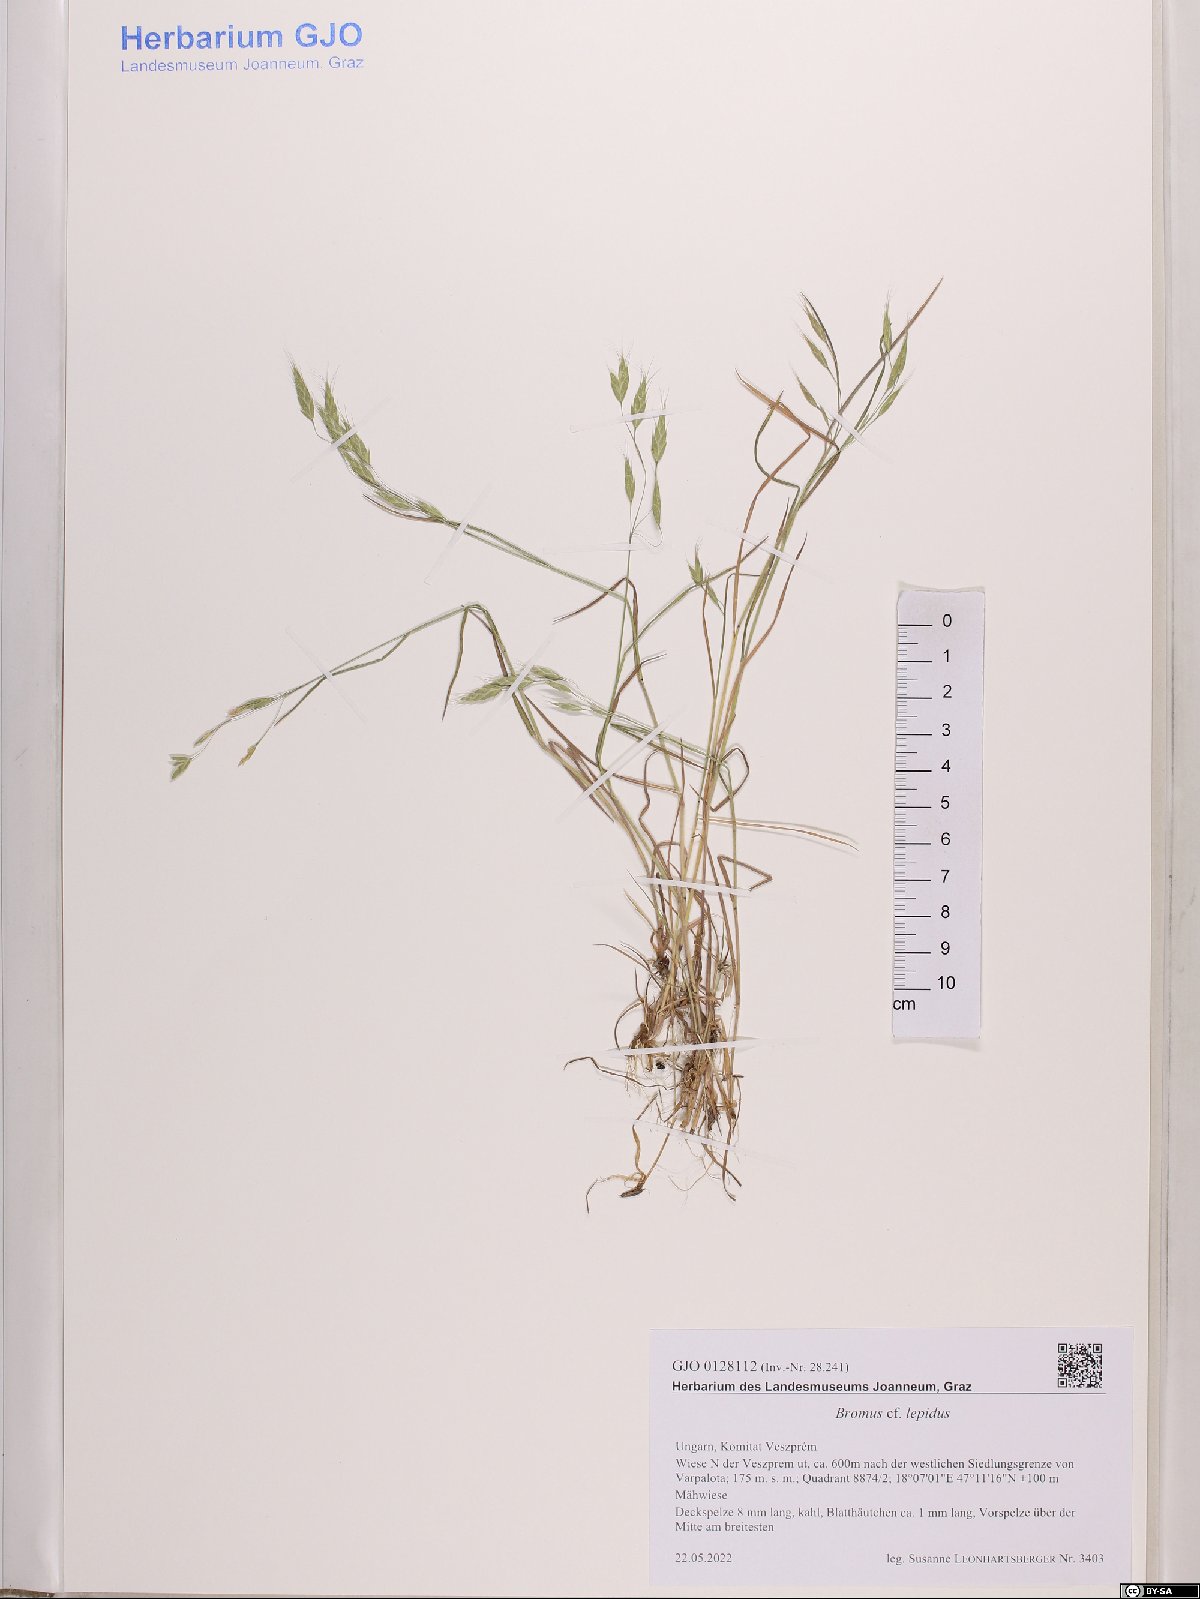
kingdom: Plantae
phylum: Tracheophyta
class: Liliopsida
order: Poales
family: Poaceae
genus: Bromus
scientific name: Bromus lepidus
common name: Slender soft-brome
